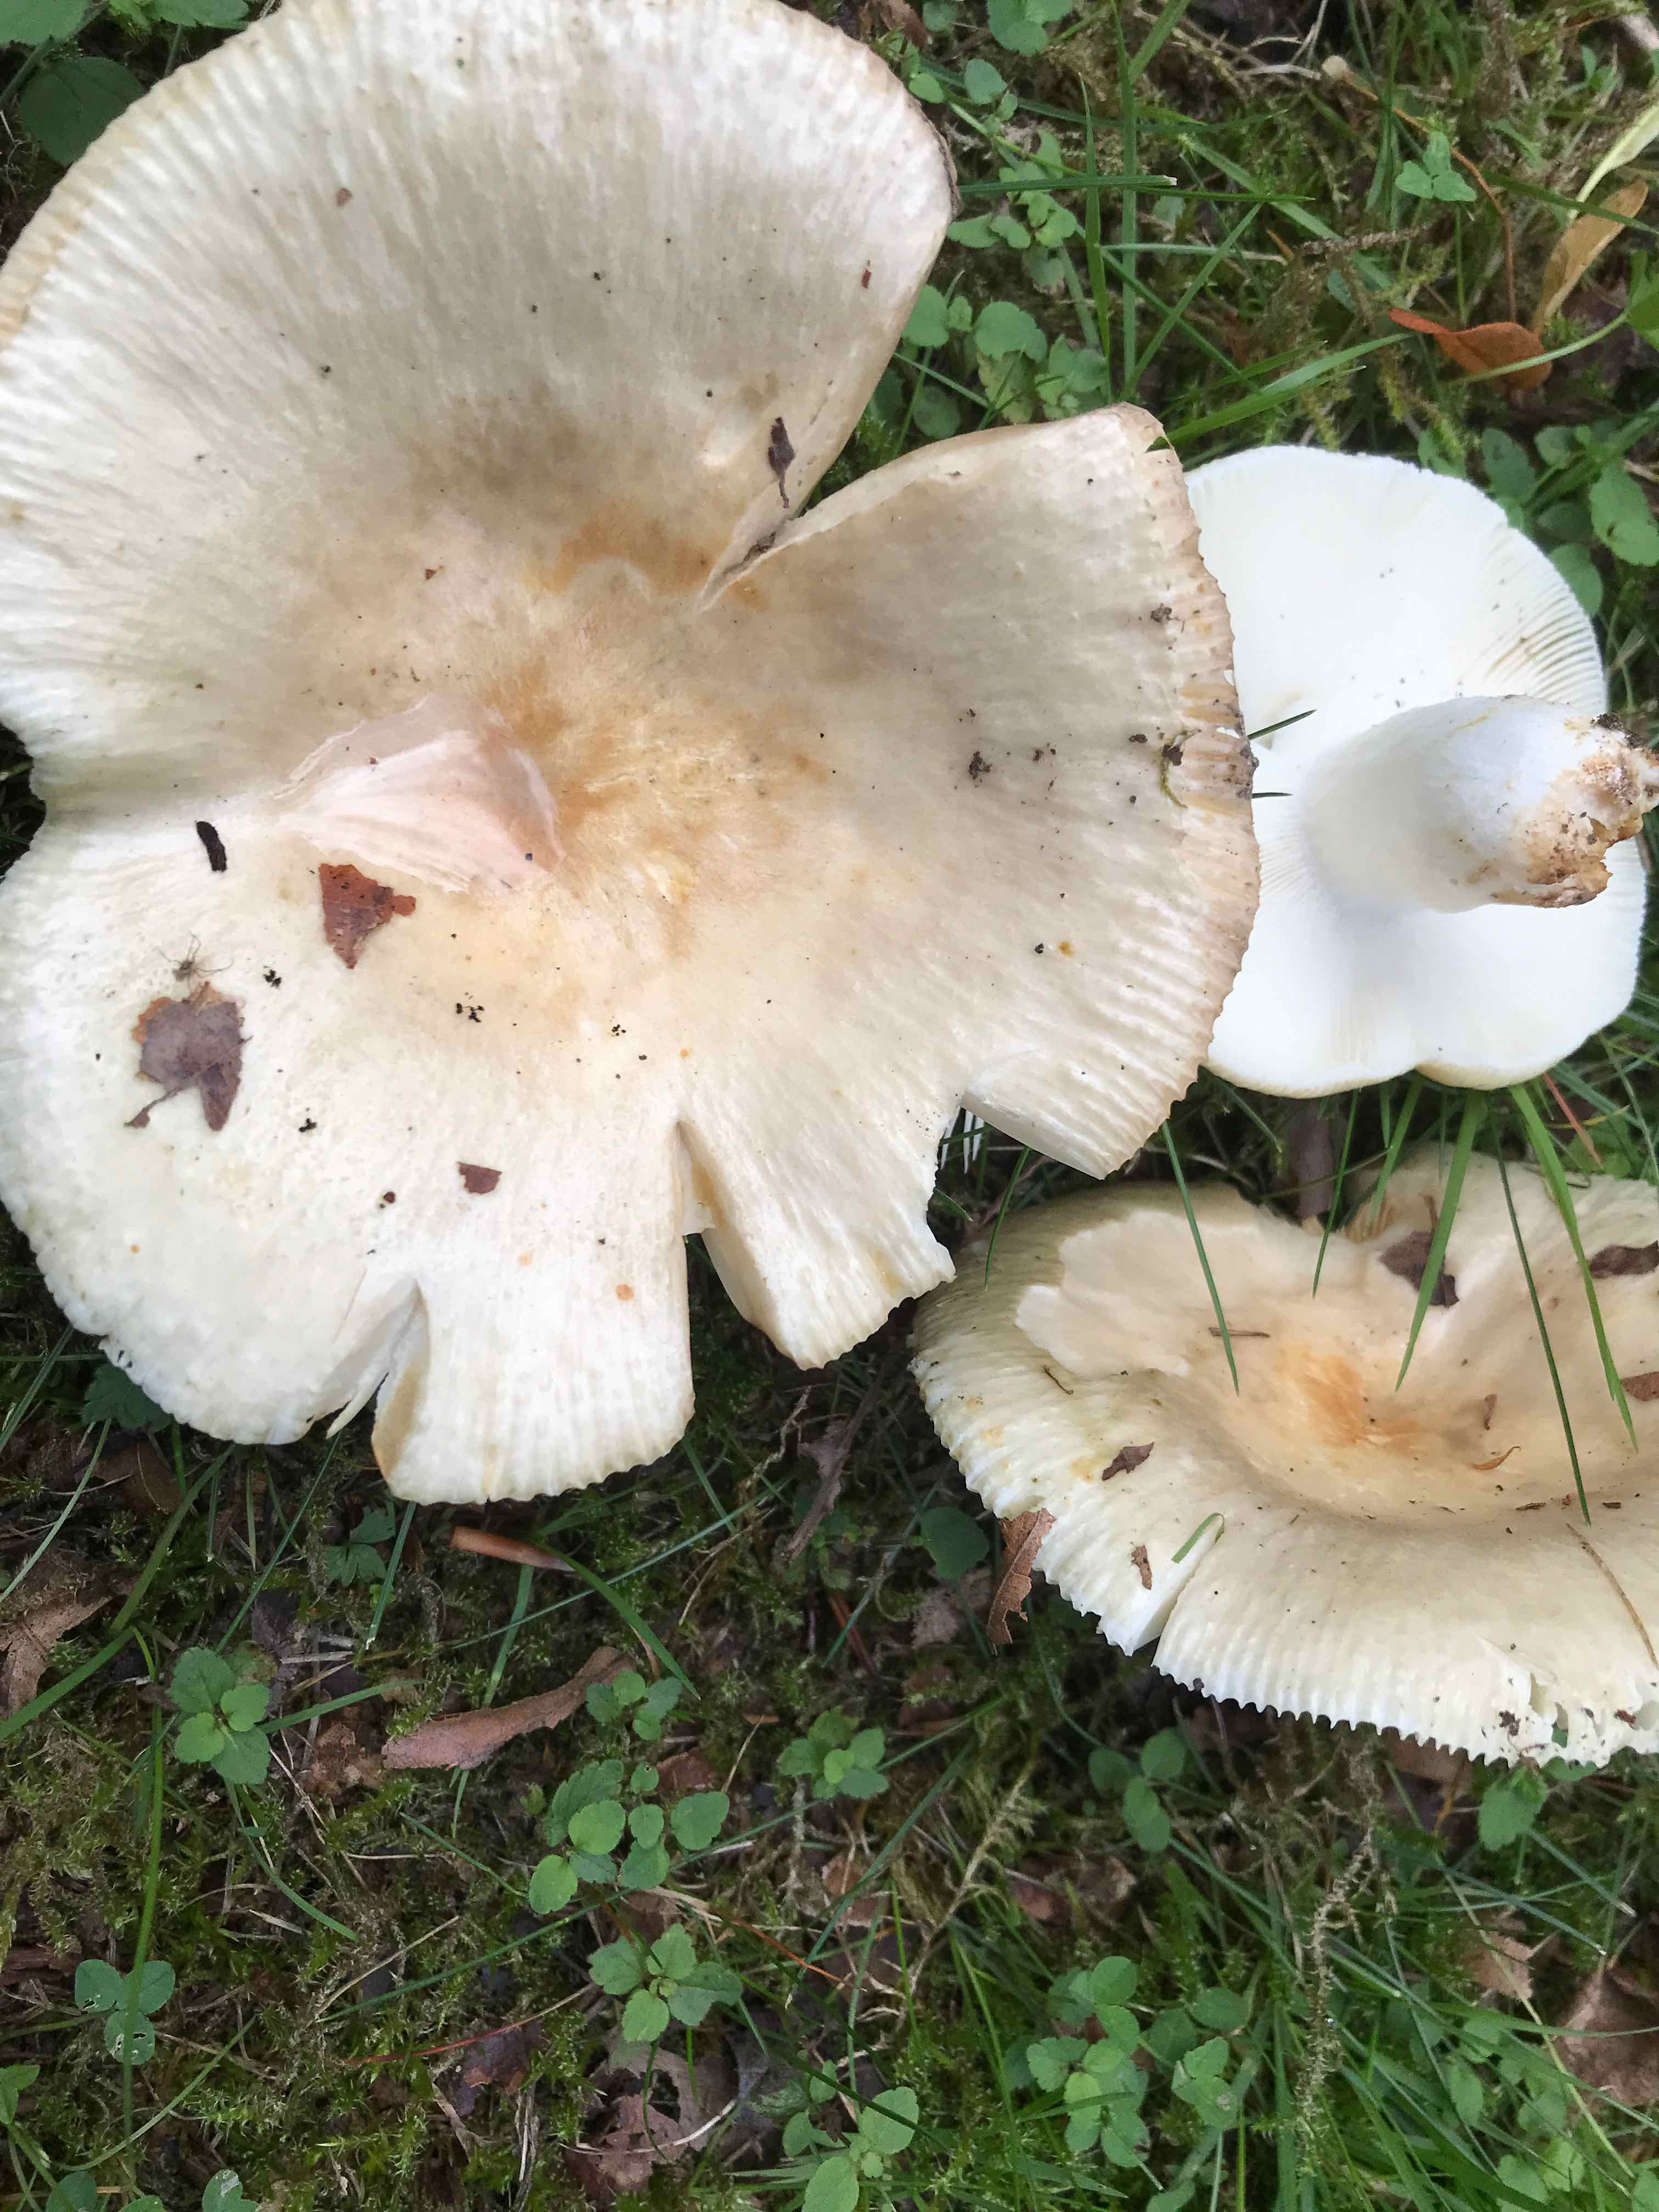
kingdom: Fungi
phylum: Basidiomycota
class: Agaricomycetes
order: Russulales
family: Russulaceae
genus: Russula
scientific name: Russula
